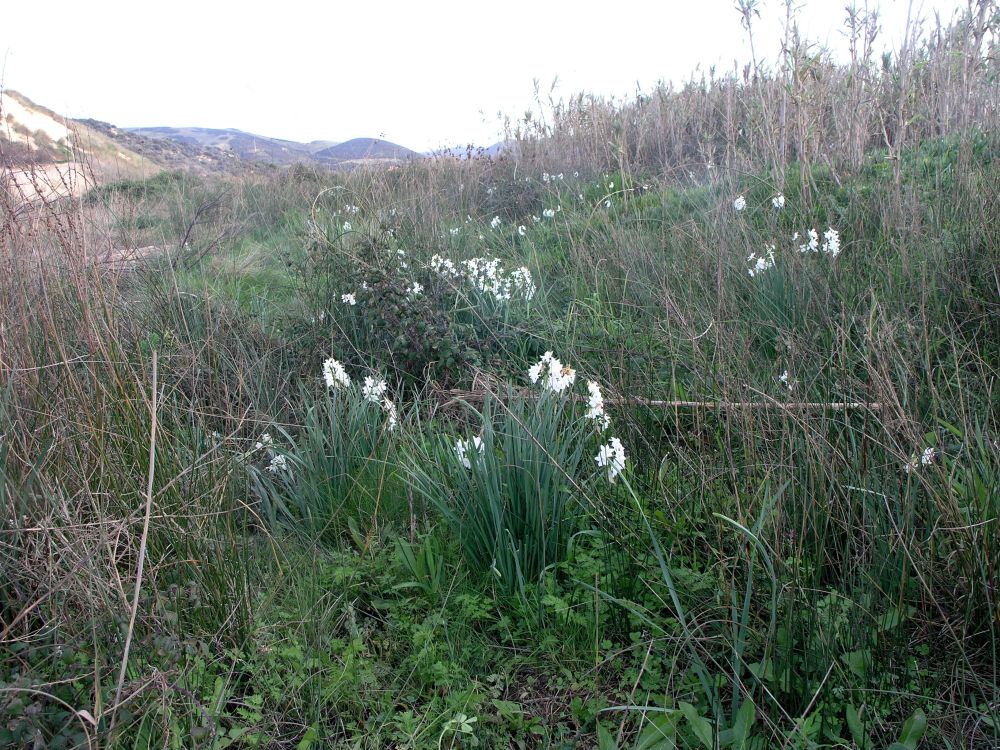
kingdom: Plantae
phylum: Tracheophyta
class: Liliopsida
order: Asparagales
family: Amaryllidaceae
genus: Narcissus
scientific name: Narcissus papyraceus
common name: Paper-white daffodil
